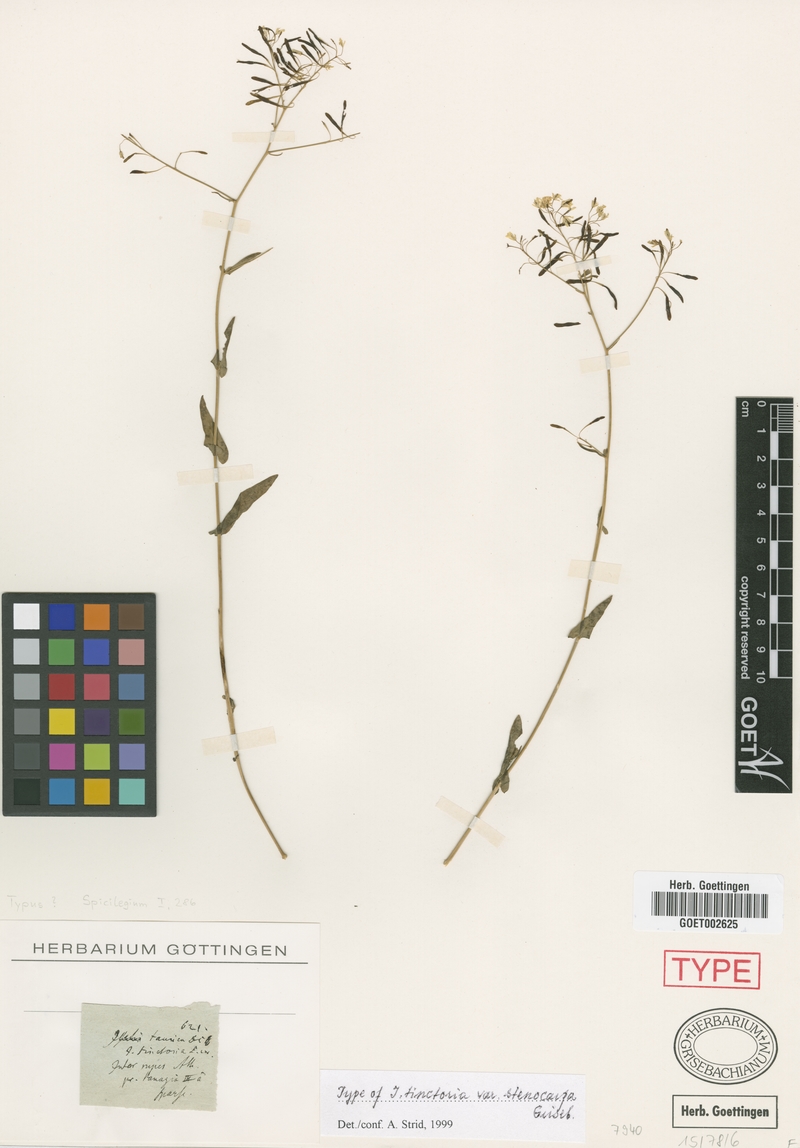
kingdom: Plantae
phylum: Tracheophyta
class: Magnoliopsida
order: Brassicales
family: Brassicaceae
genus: Isatis
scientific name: Isatis tomentella
